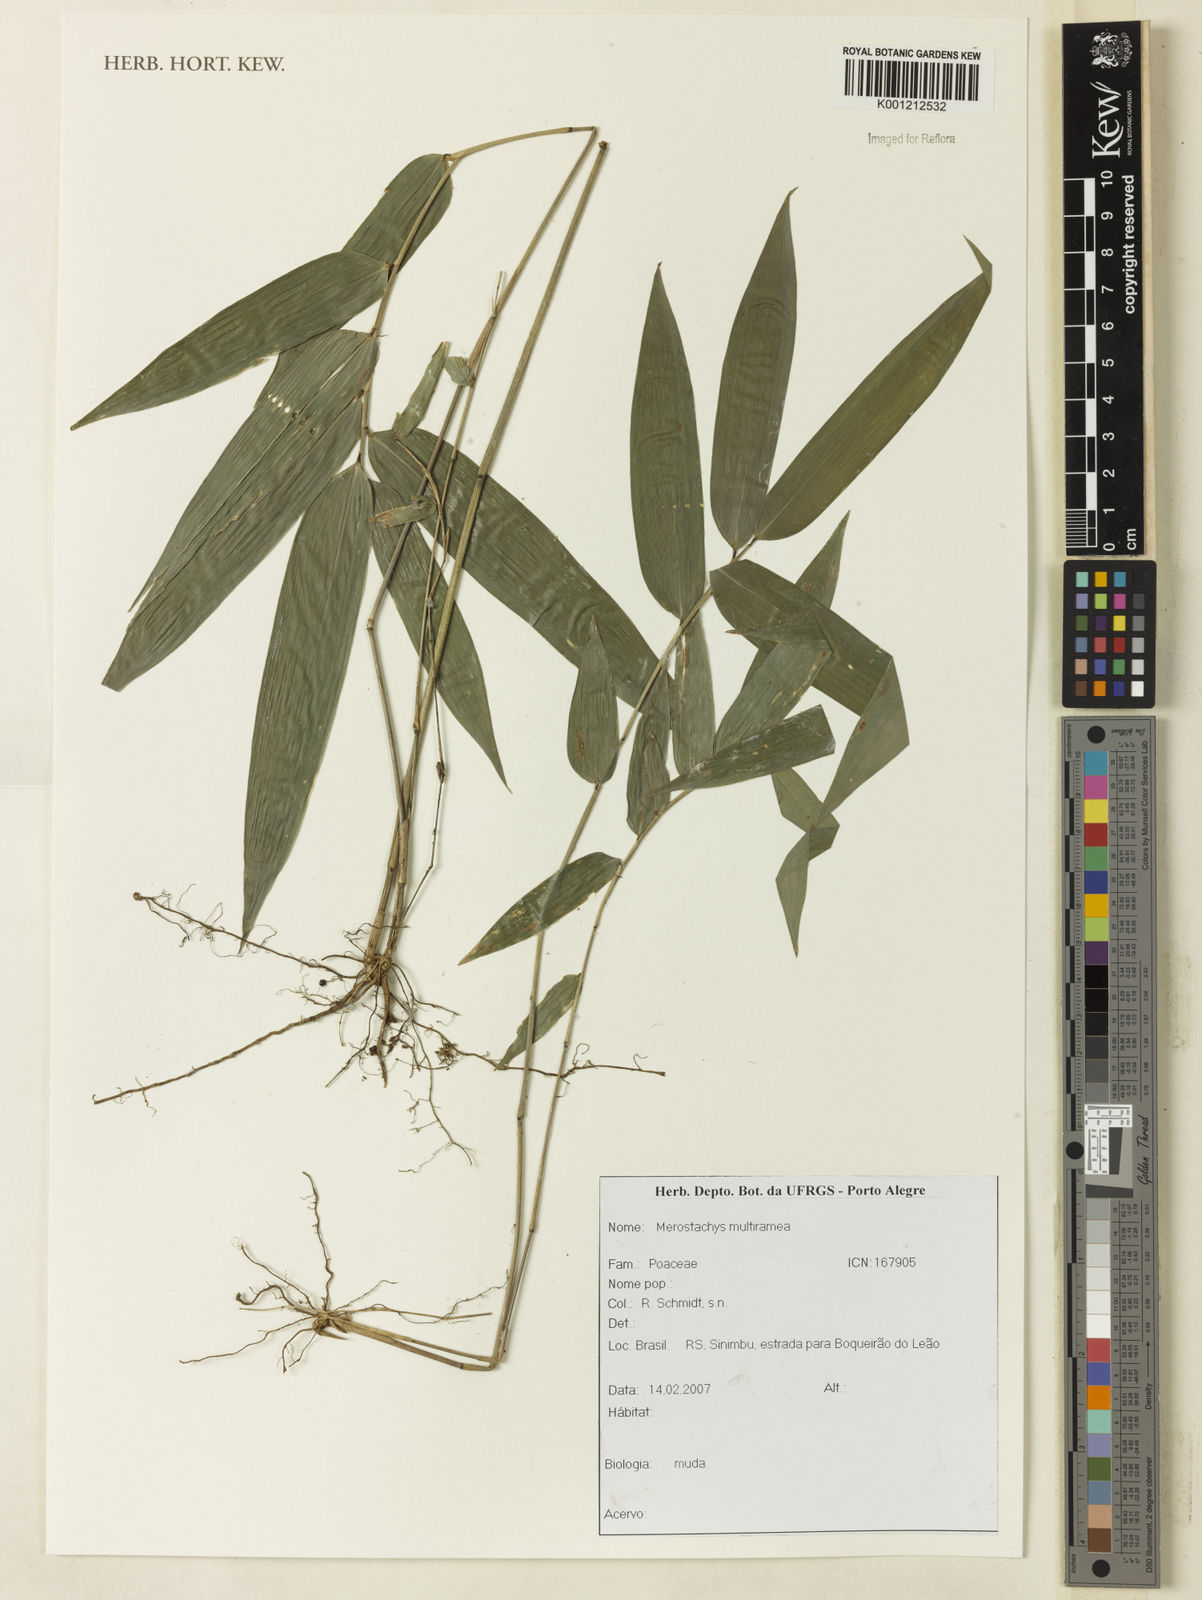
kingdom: Plantae
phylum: Tracheophyta
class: Liliopsida
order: Poales
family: Poaceae
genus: Merostachys
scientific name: Merostachys multiramea
